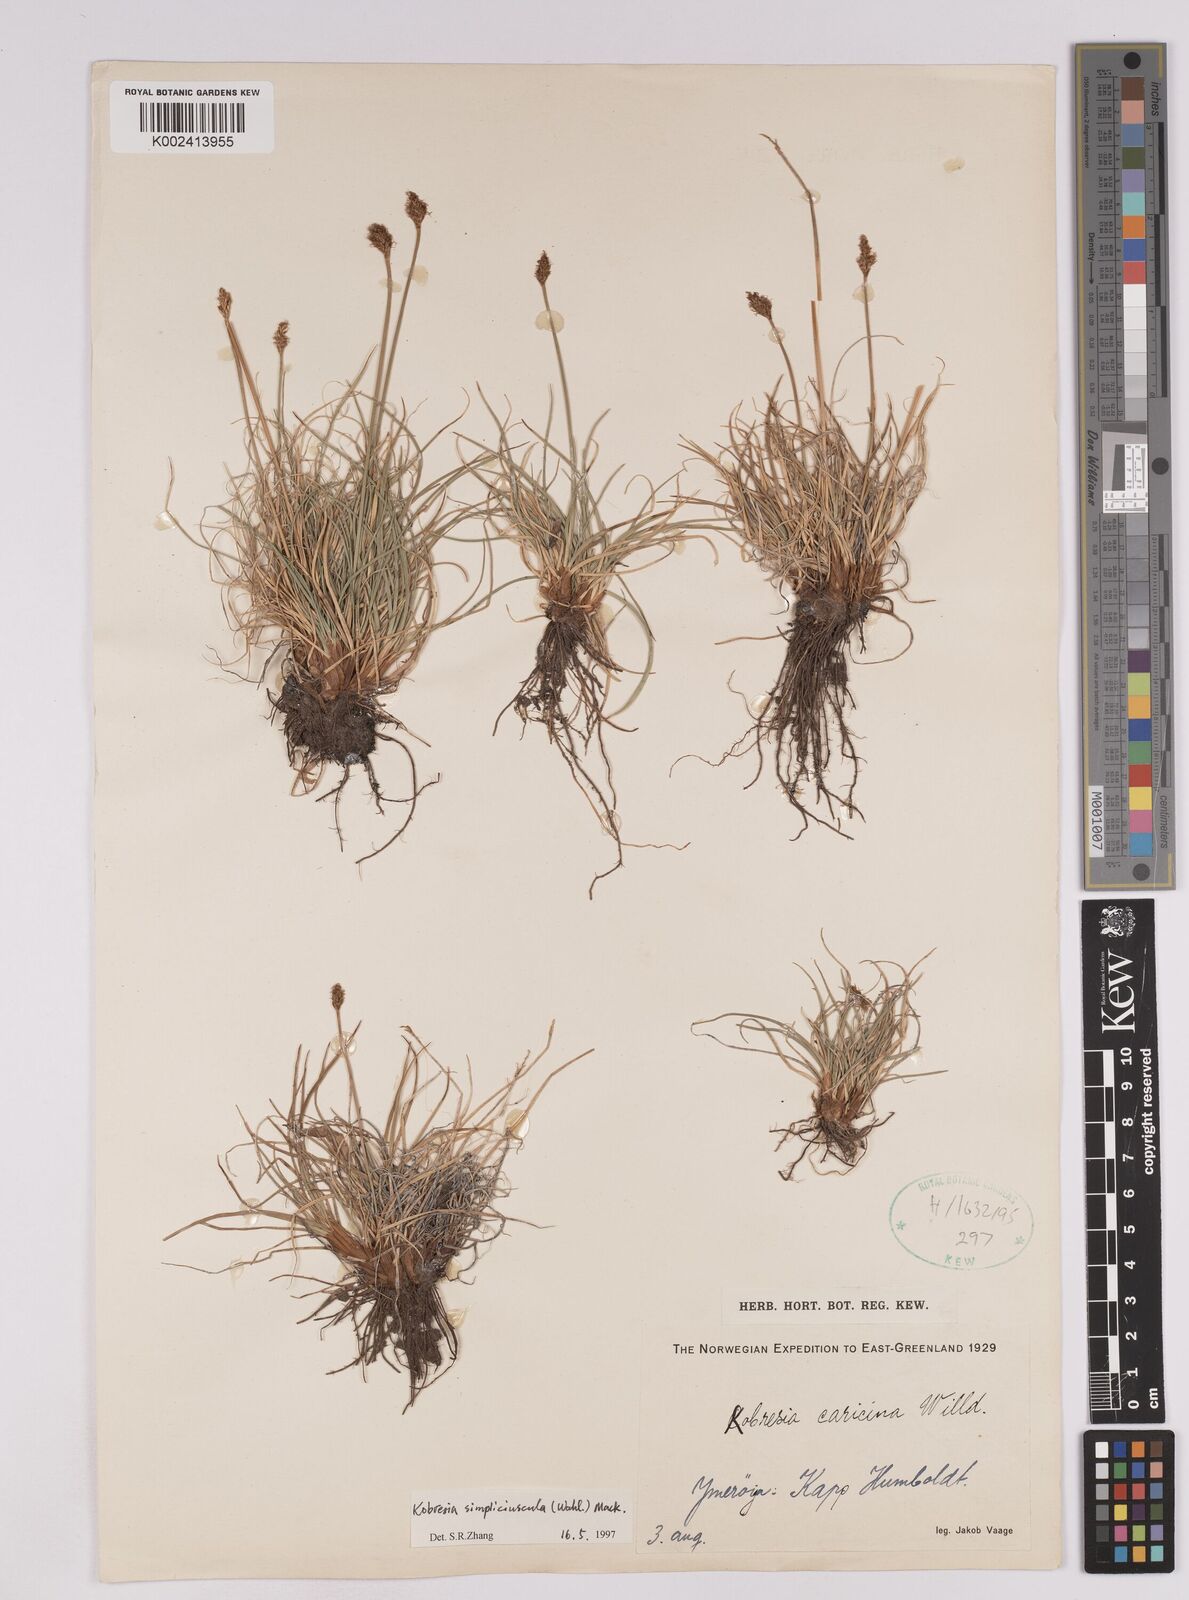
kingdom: Plantae
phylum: Tracheophyta
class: Liliopsida
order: Poales
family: Cyperaceae
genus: Carex
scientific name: Carex simpliciuscula
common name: Simple bog sedge
